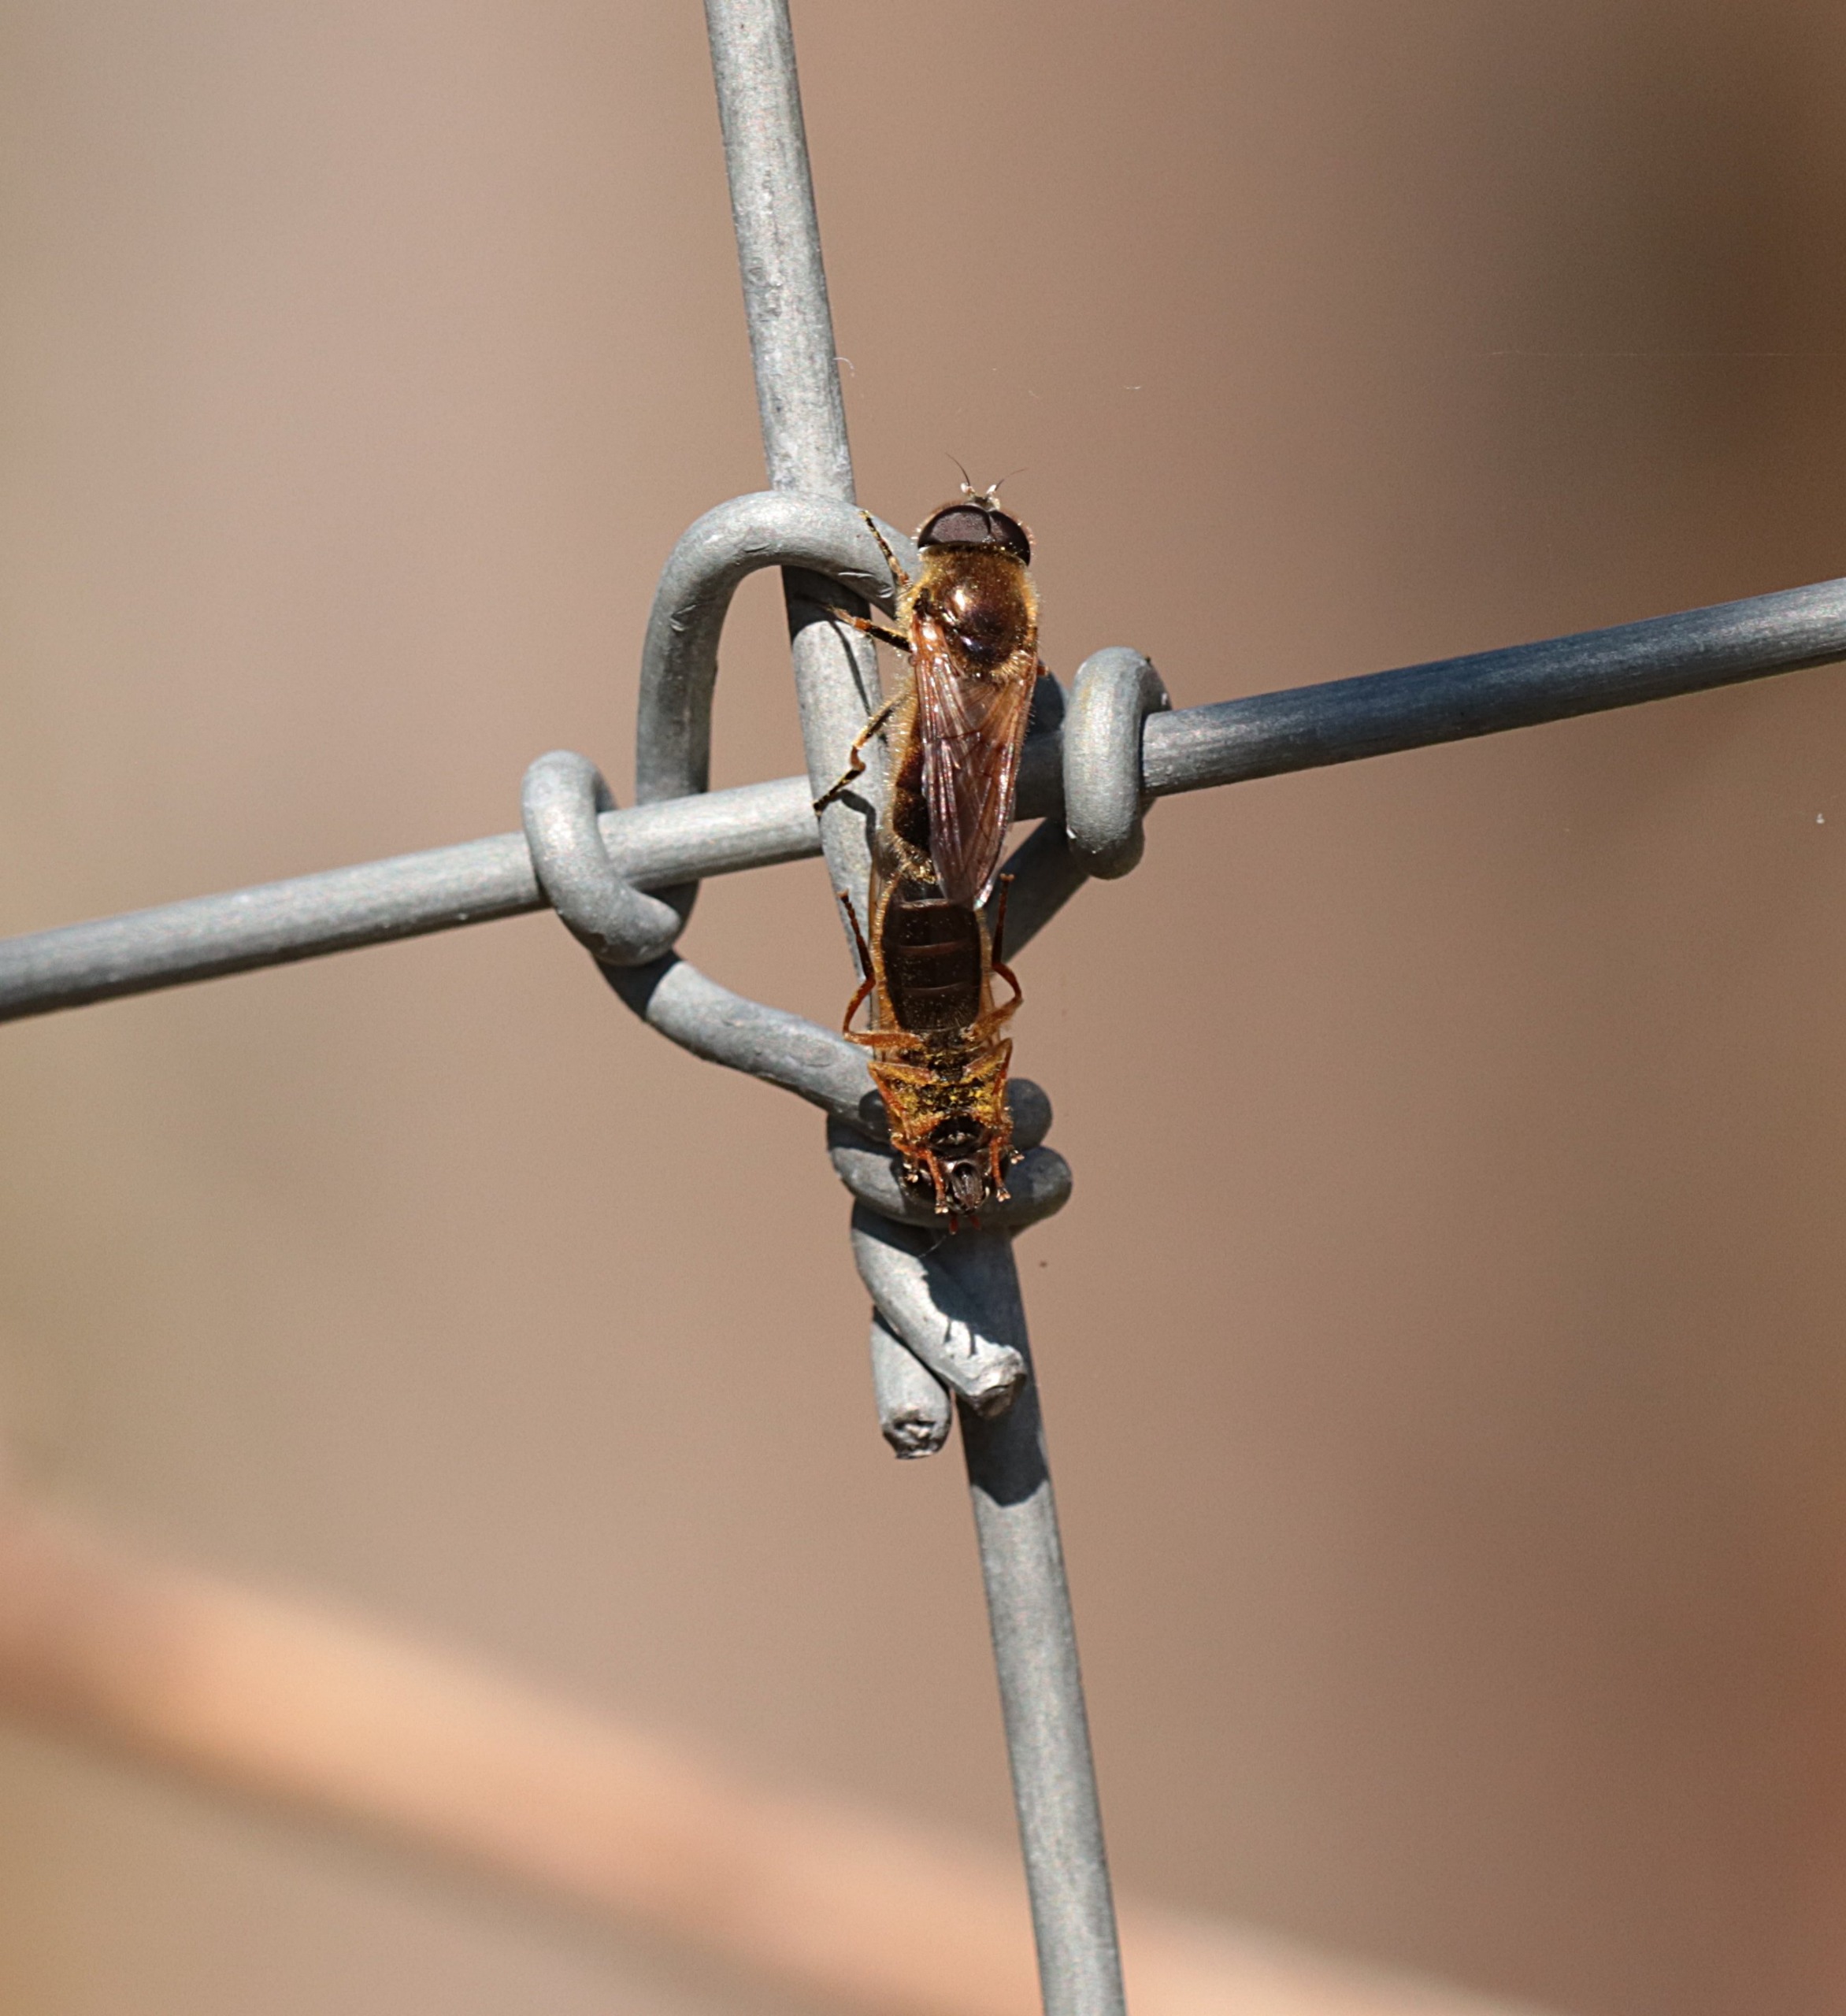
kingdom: Animalia
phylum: Arthropoda
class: Insecta
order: Diptera
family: Syrphidae
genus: Cheilosia
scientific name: Cheilosia albipila
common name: Hvidhåret urtesvirreflue
